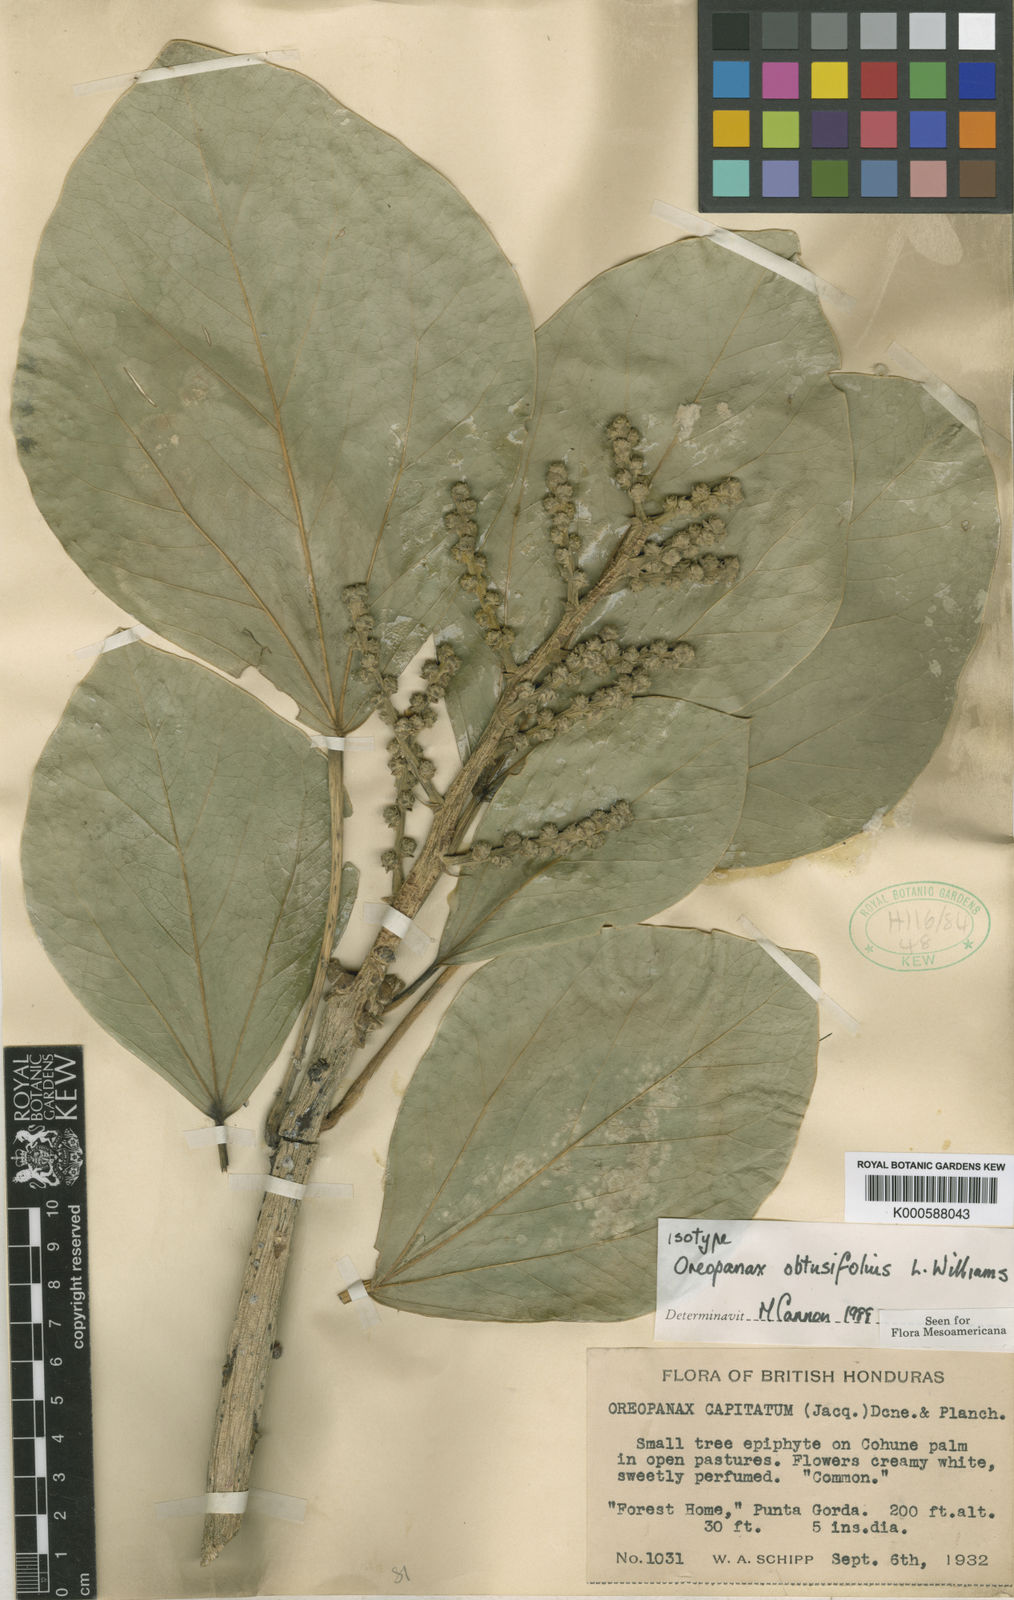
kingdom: Plantae
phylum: Tracheophyta
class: Magnoliopsida
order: Apiales
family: Araliaceae
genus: Oreopanax
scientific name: Oreopanax guatemalensis
